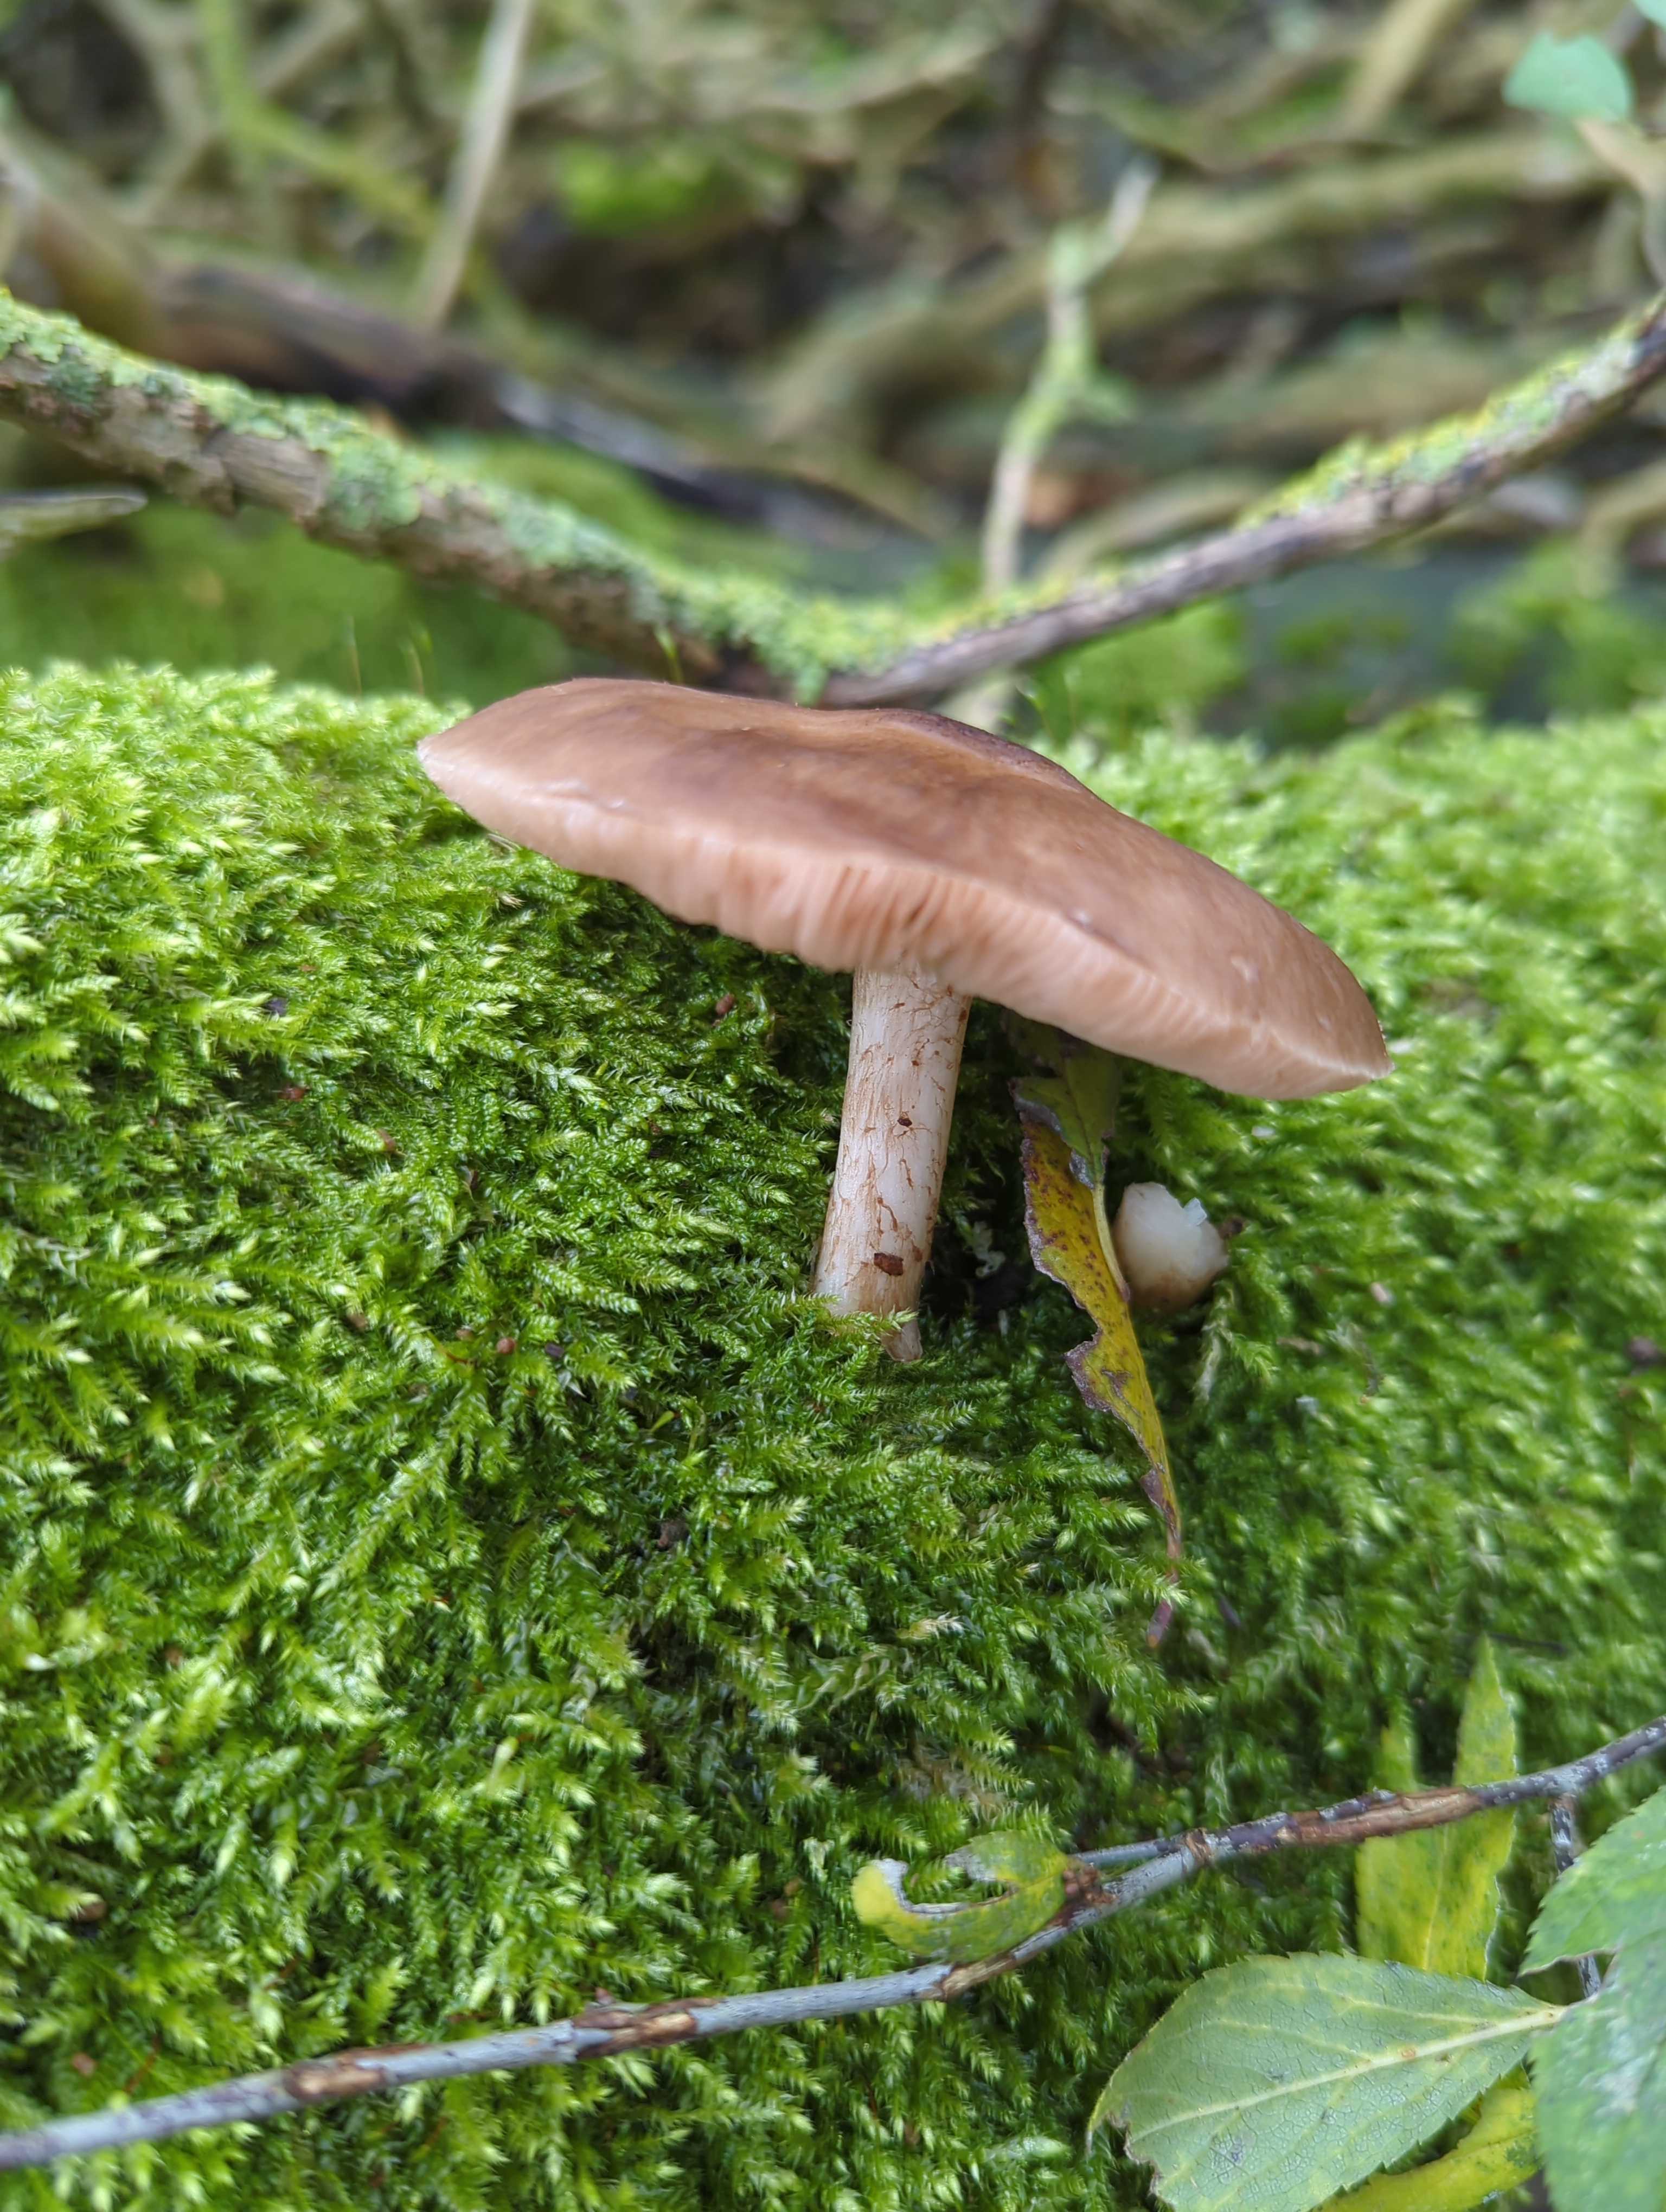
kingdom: Fungi
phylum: Basidiomycota
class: Agaricomycetes
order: Agaricales
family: Pluteaceae
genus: Pluteus
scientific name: Pluteus cervinus
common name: sodfarvet skærmhat
